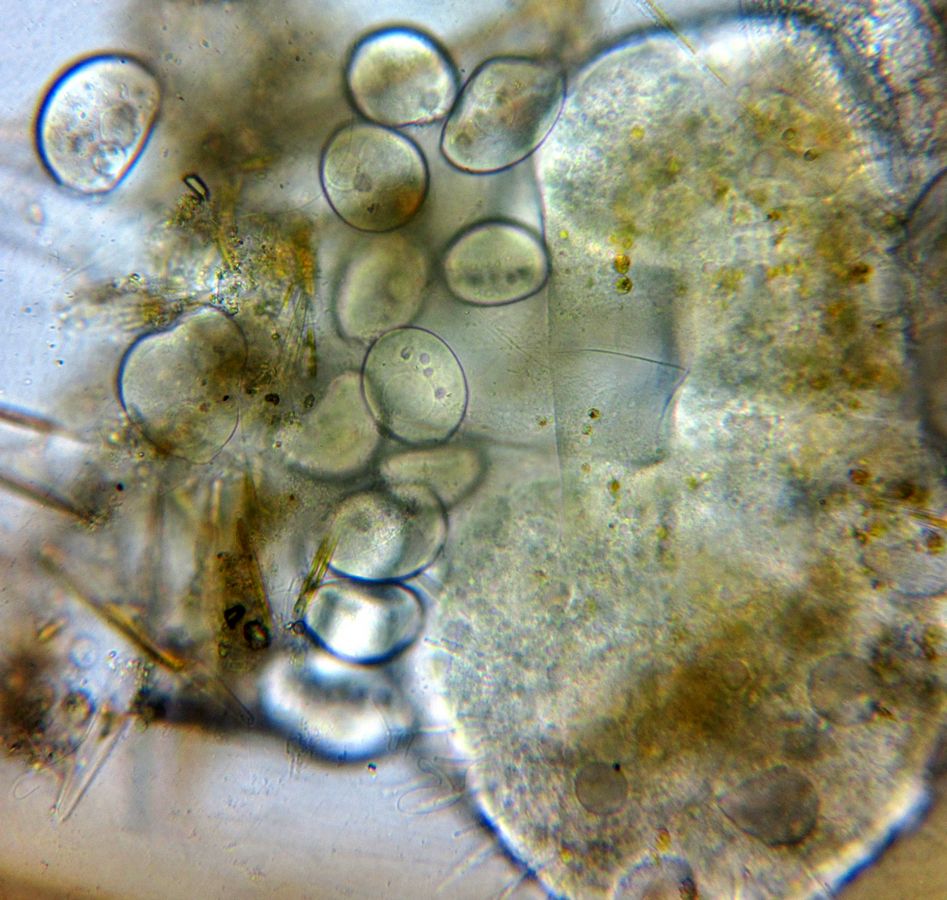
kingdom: Chromista
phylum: Ciliophora
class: Phyllopharyngea
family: Ephelotidae
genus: Ephelota
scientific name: Ephelota truncata
